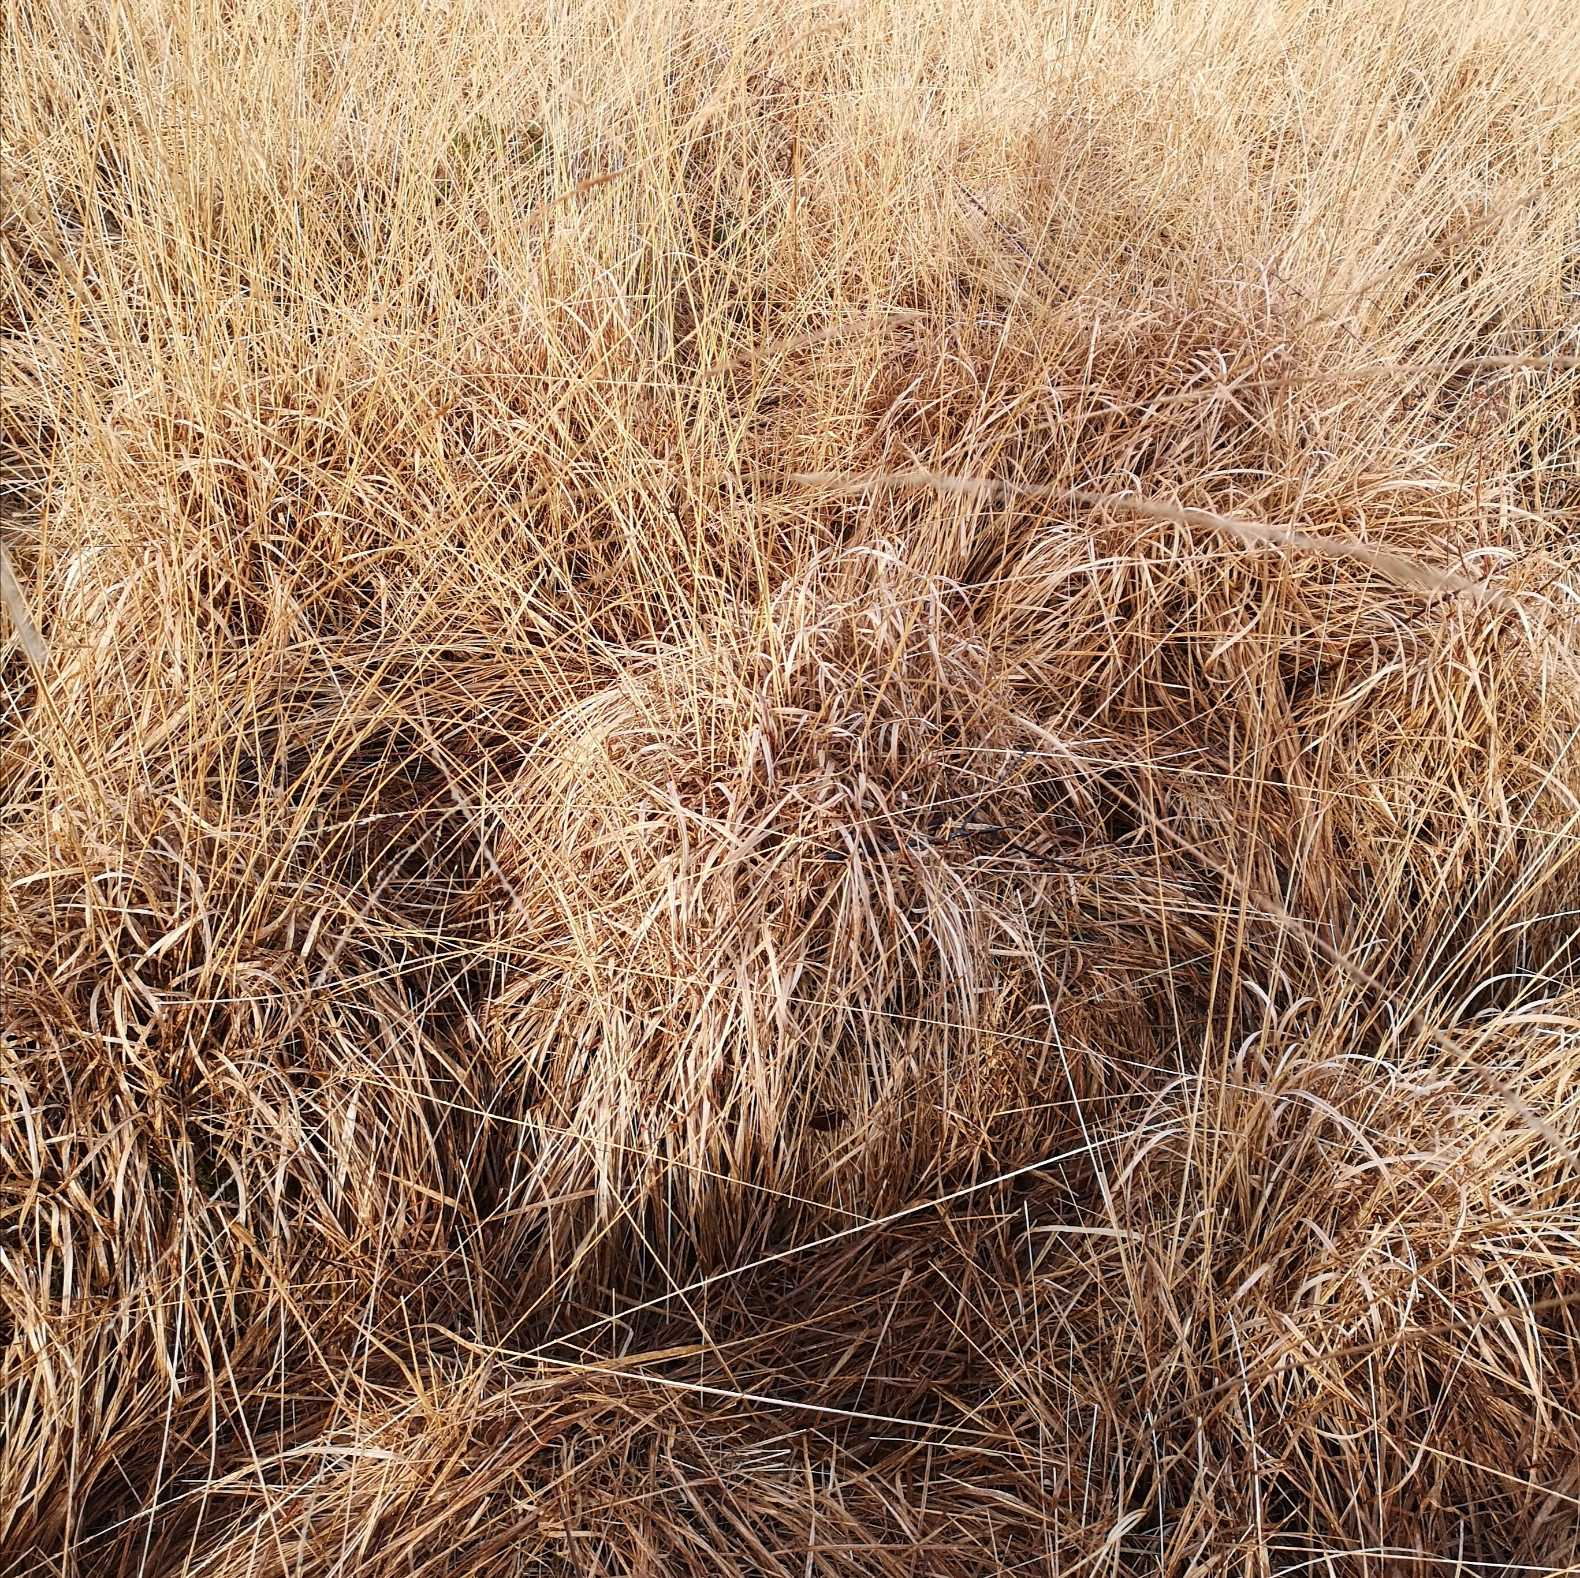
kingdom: Plantae
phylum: Tracheophyta
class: Liliopsida
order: Poales
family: Poaceae
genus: Molinia
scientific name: Molinia caerulea
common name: Blåtop
